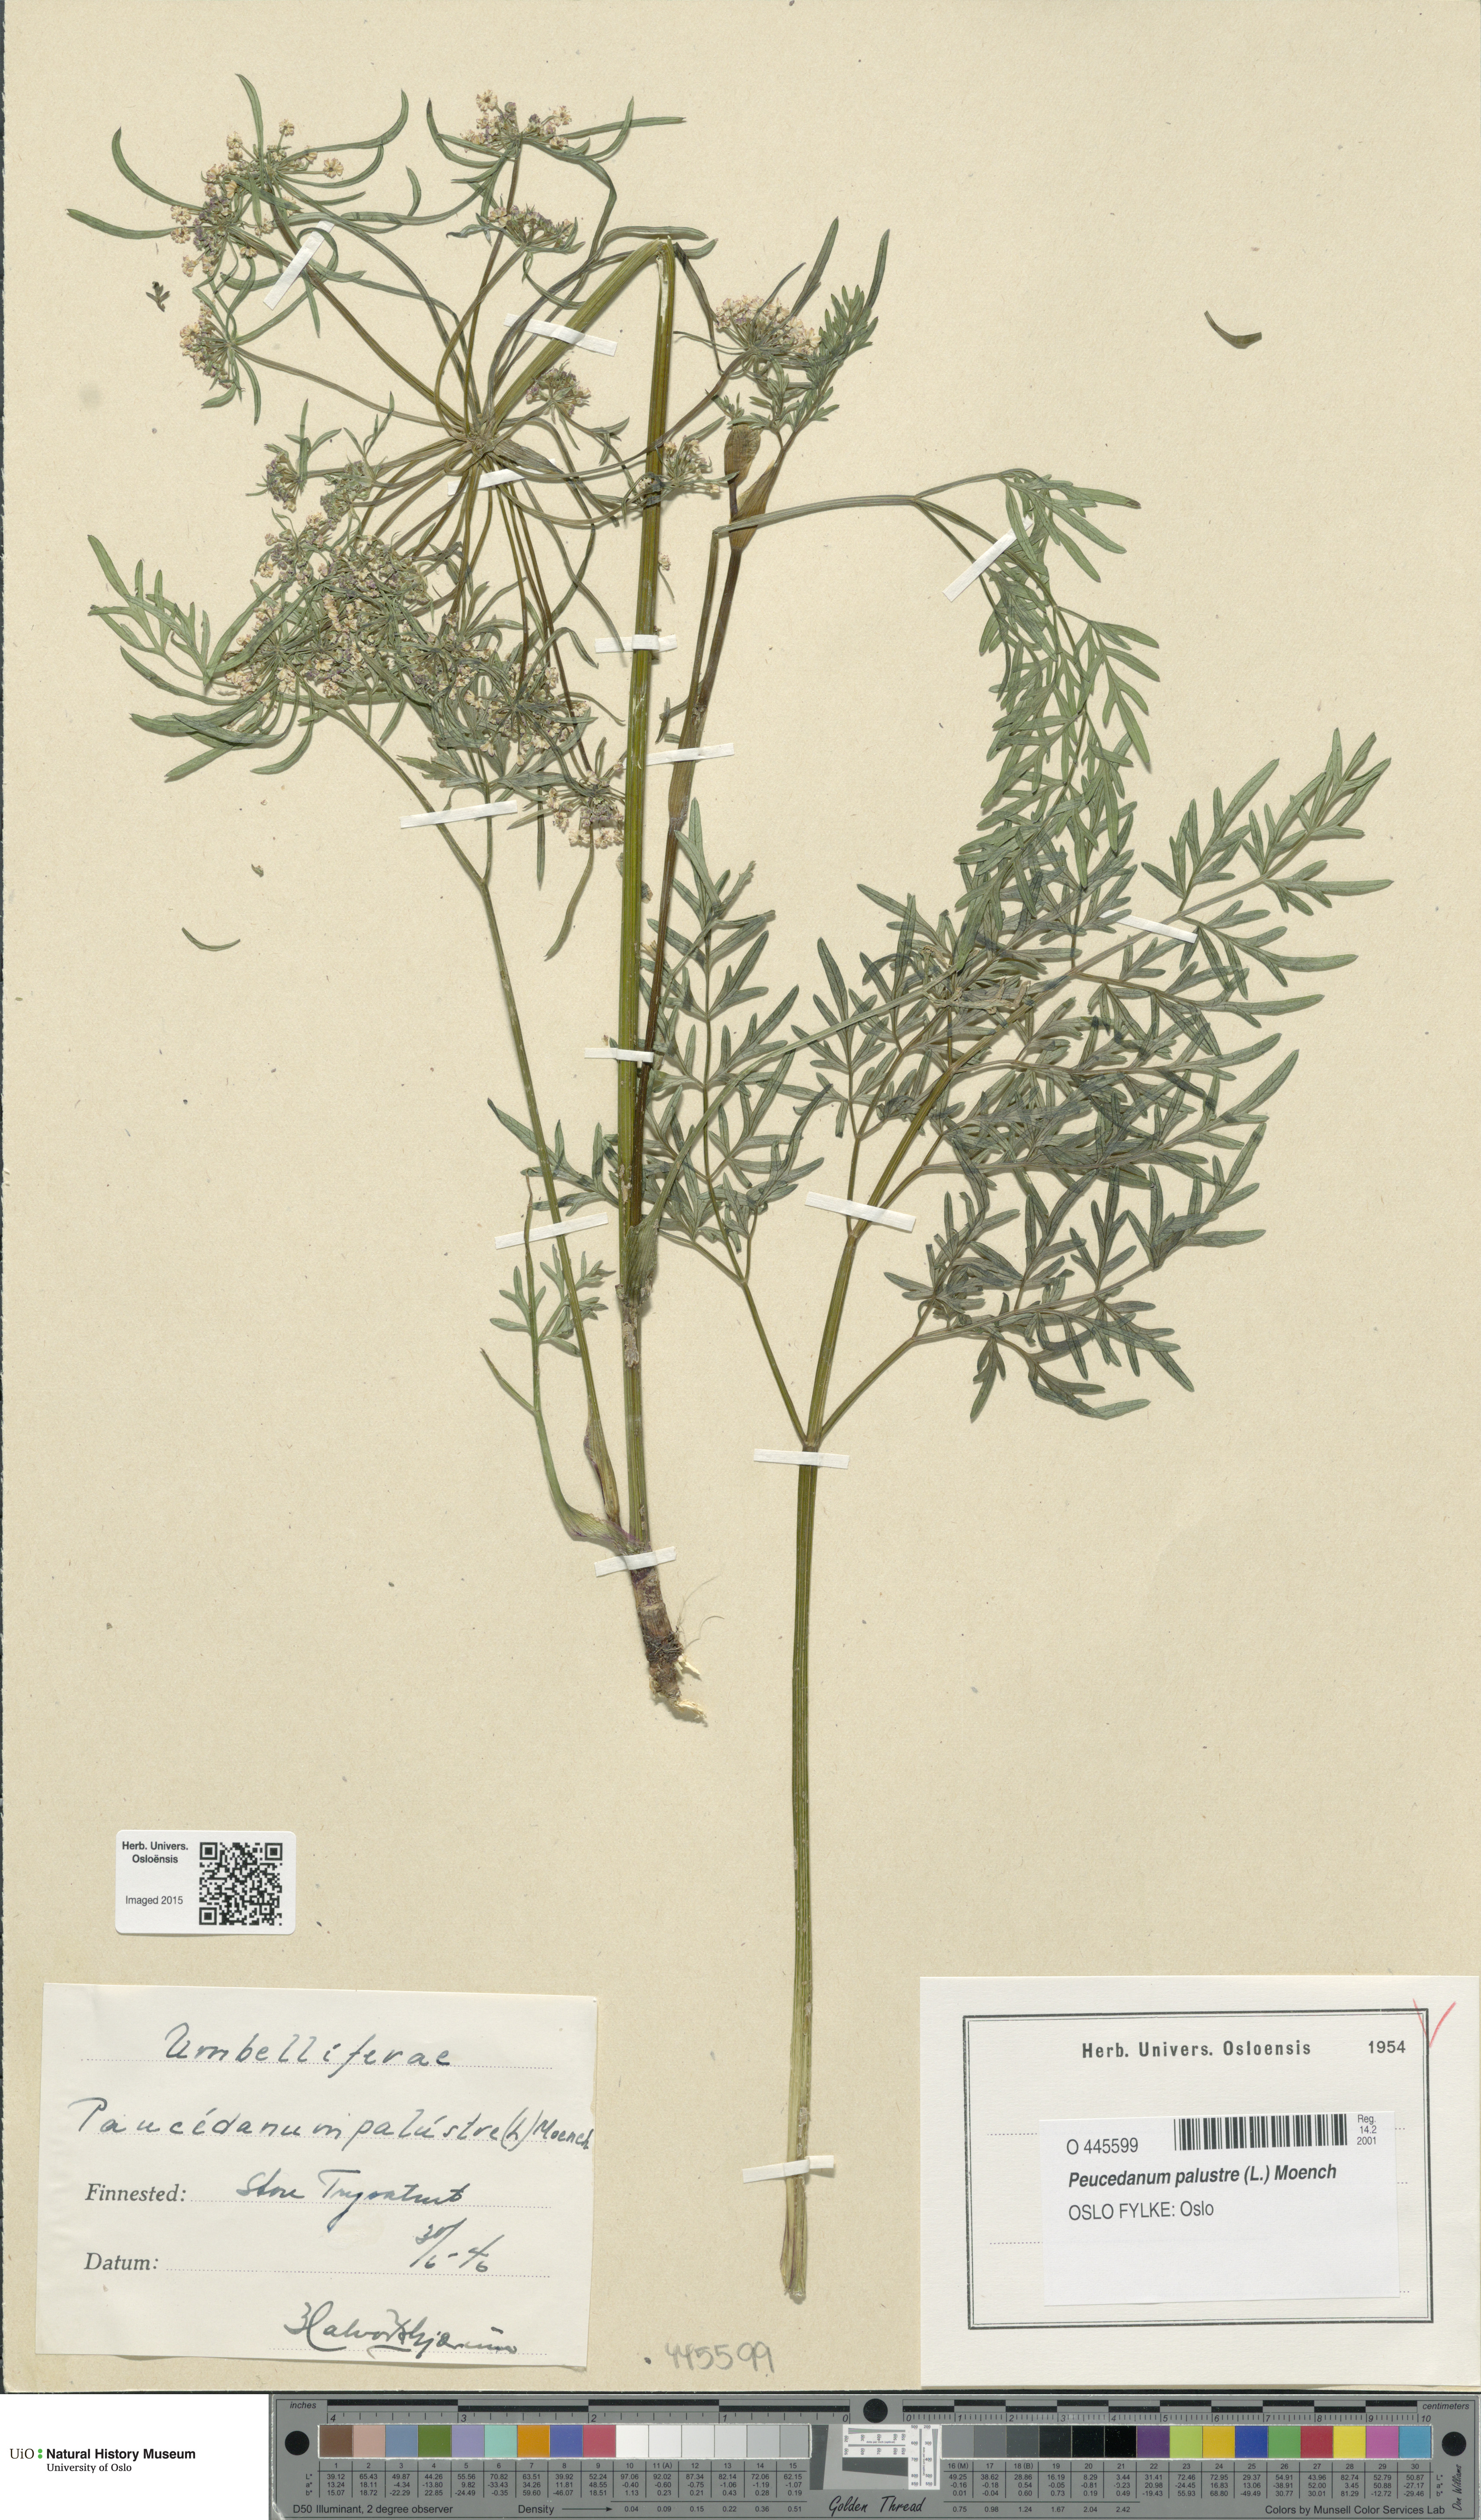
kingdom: Plantae
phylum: Tracheophyta
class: Magnoliopsida
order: Apiales
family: Apiaceae
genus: Thysselinum
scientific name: Thysselinum palustre
